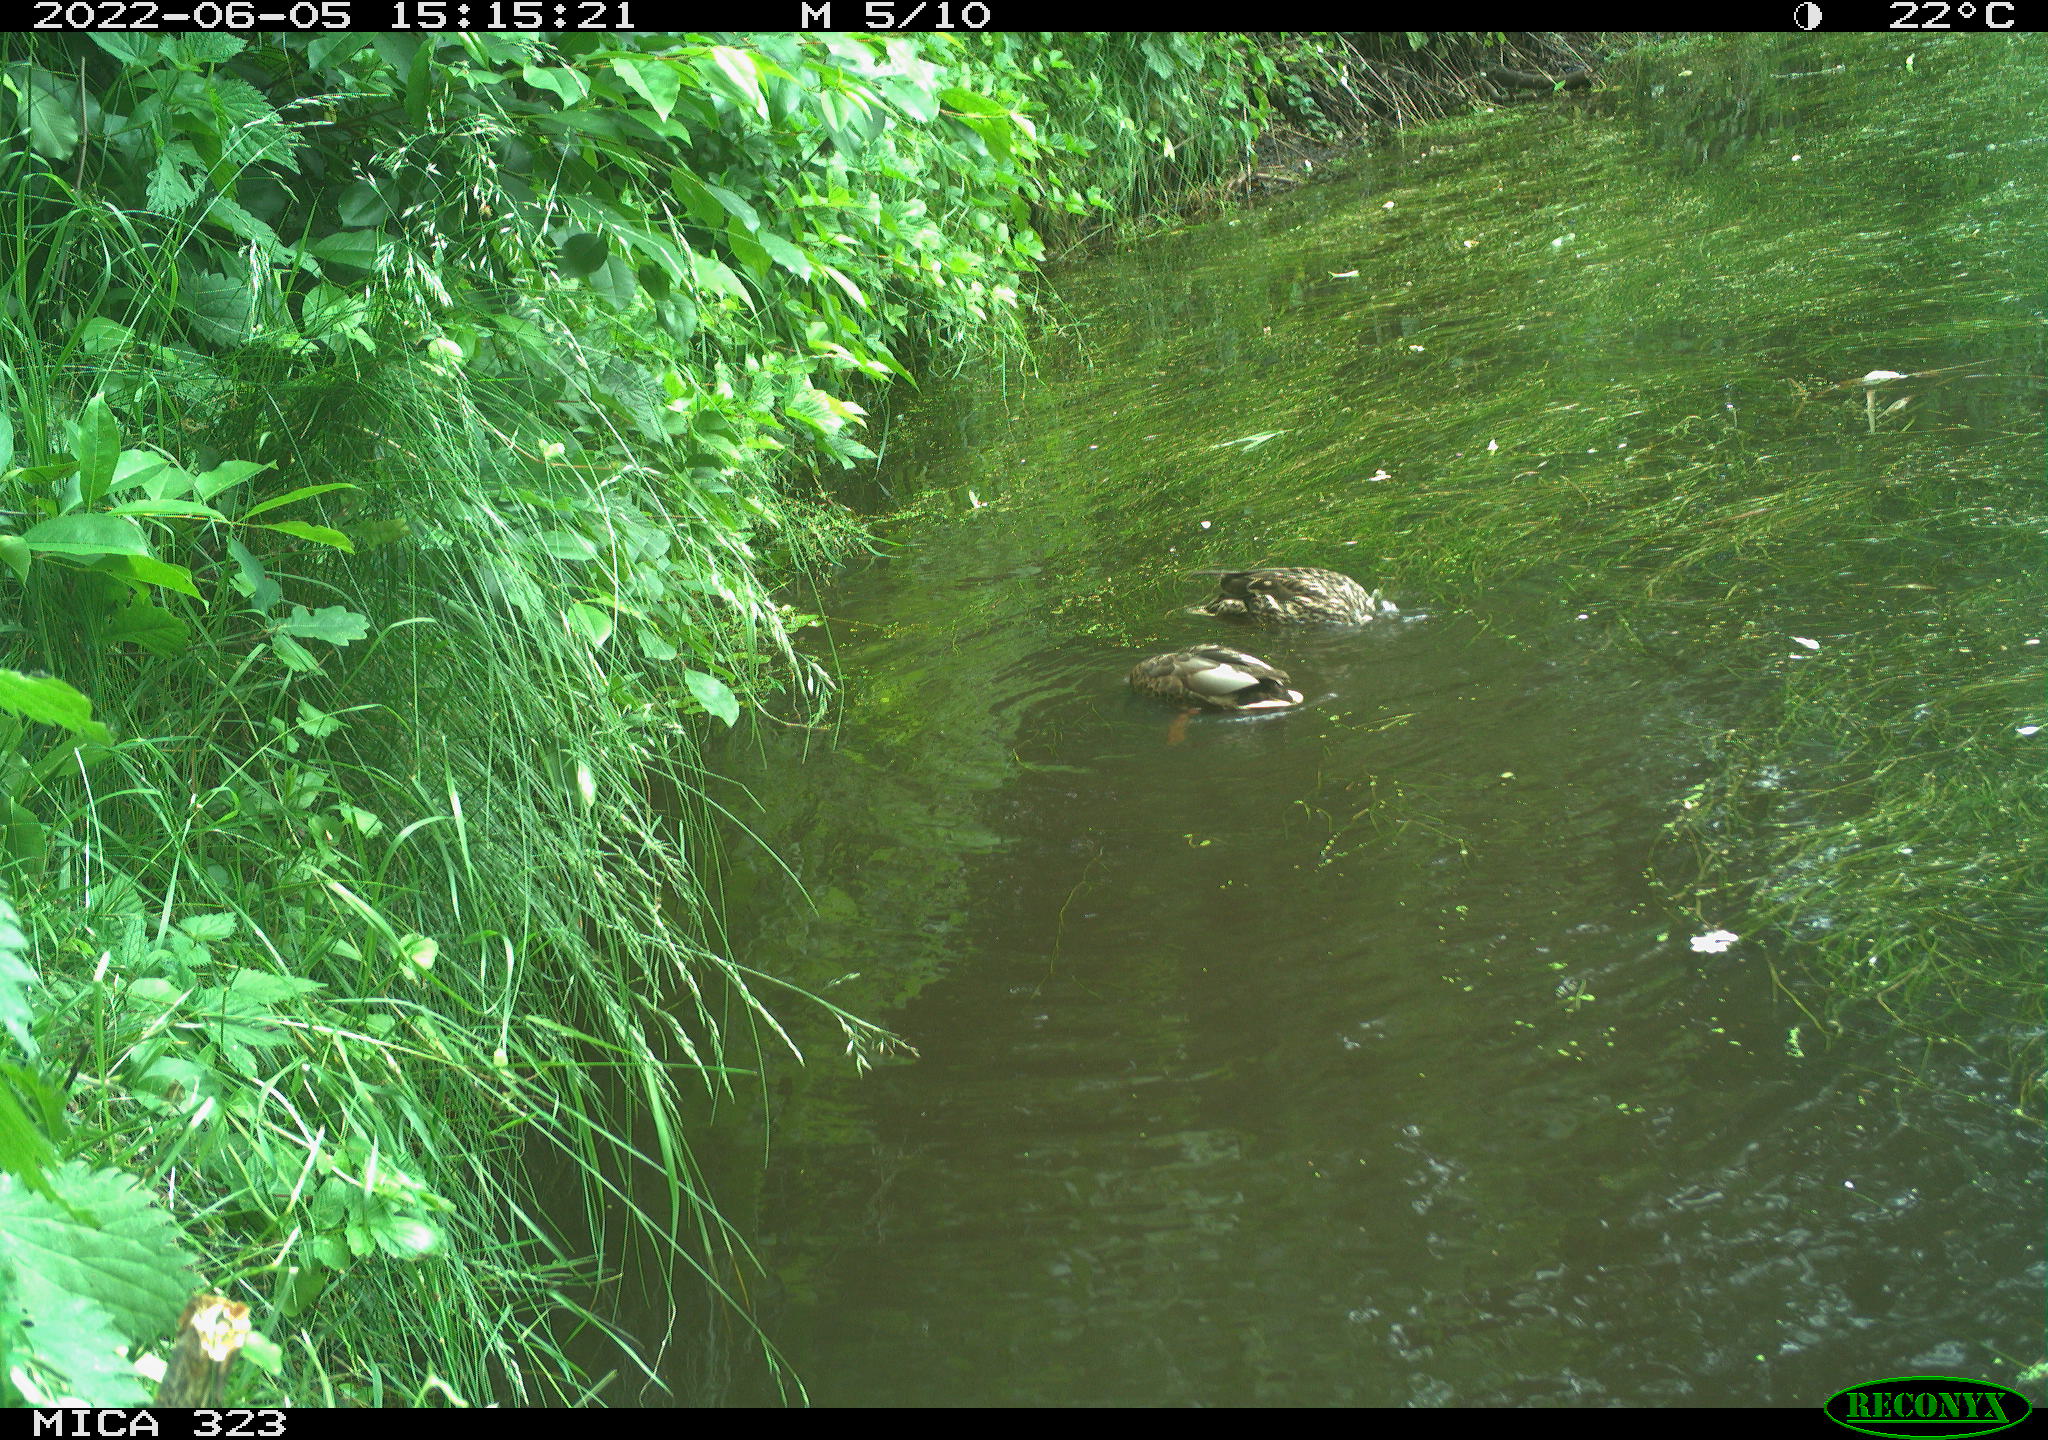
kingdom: Animalia
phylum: Chordata
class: Aves
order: Anseriformes
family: Anatidae
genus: Anas
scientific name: Anas platyrhynchos
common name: Mallard
